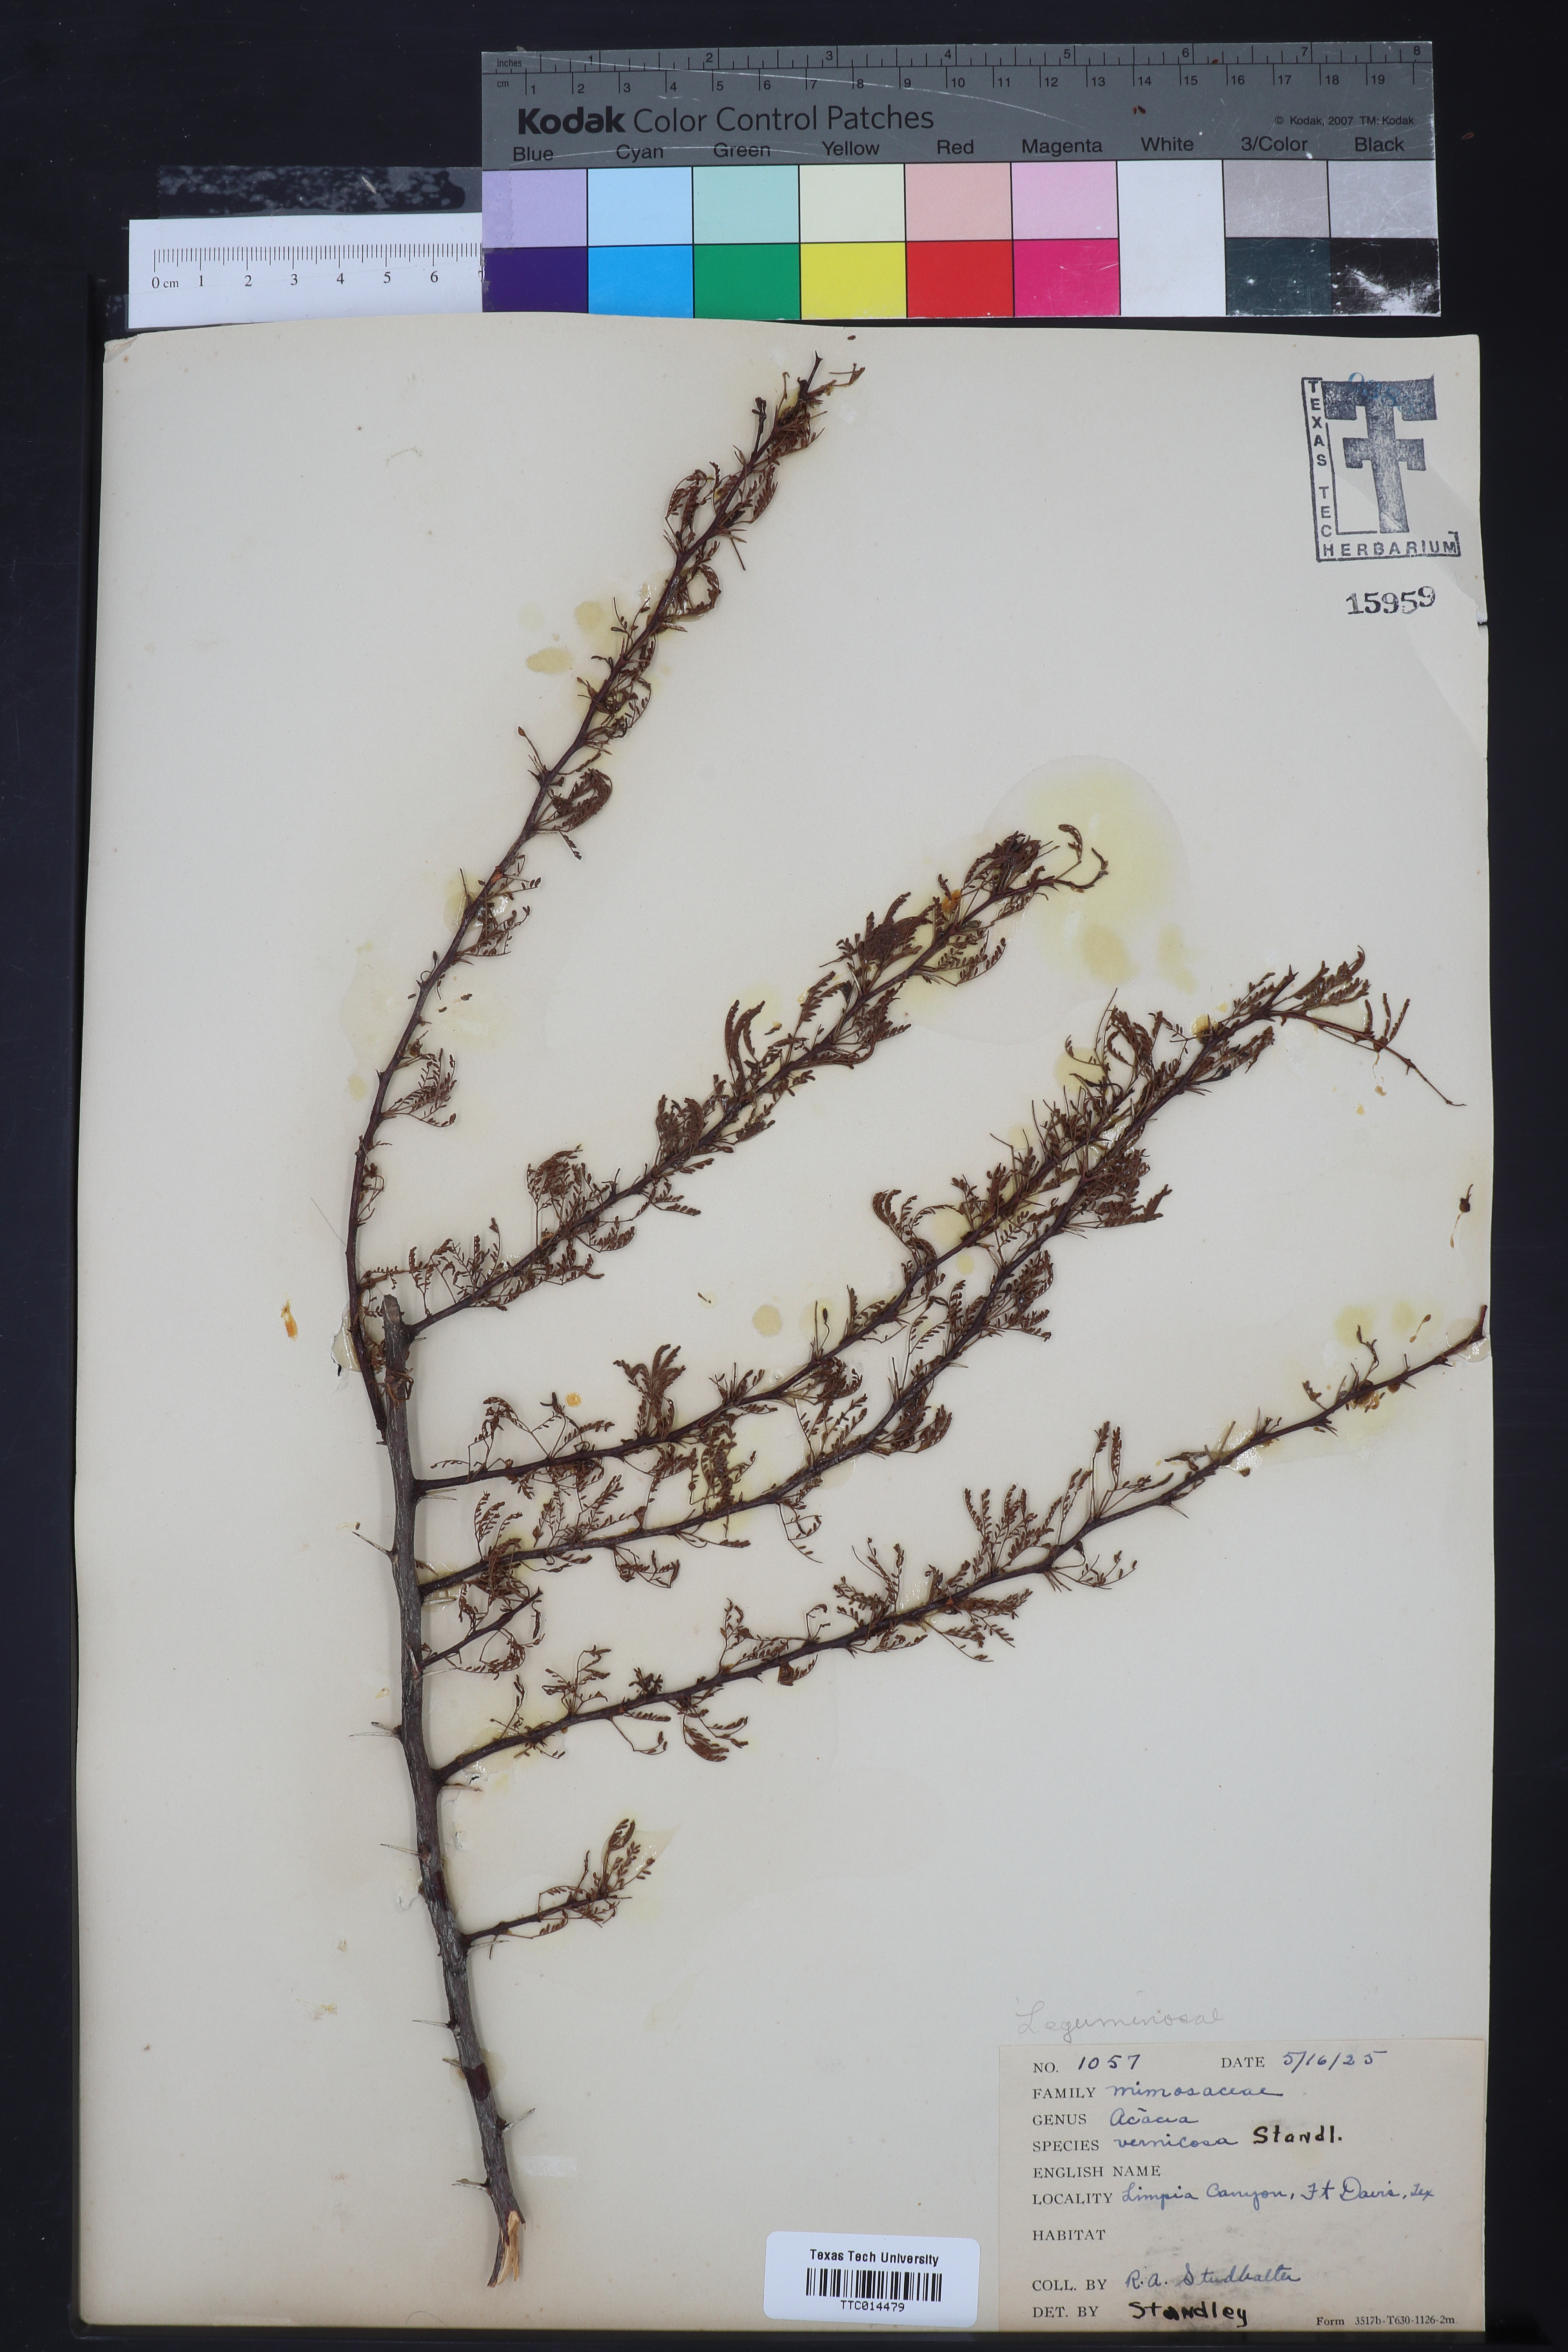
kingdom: Plantae
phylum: Tracheophyta
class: Magnoliopsida
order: Fabales
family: Fabaceae
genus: Vachellia
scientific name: Vachellia vernicosa
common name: Viscid acacia
